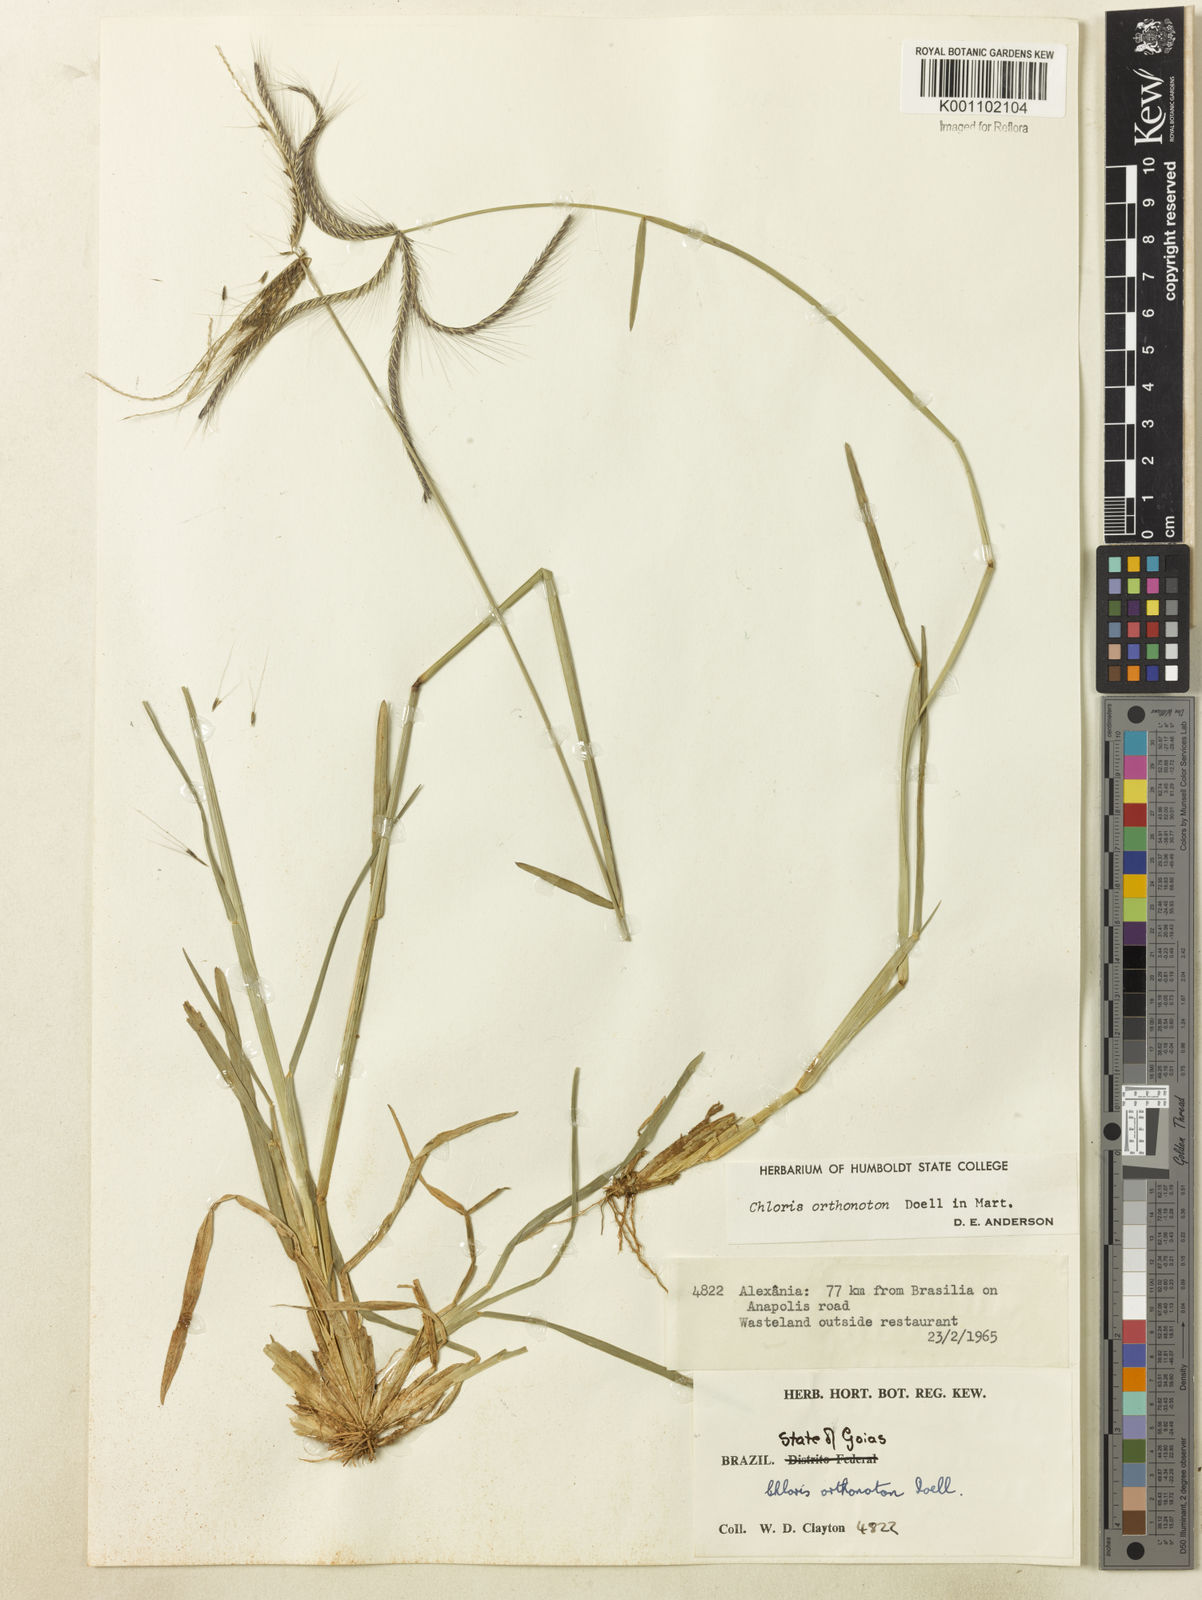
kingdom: Plantae
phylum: Tracheophyta
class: Liliopsida
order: Poales
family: Poaceae
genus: Chloris
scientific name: Chloris
